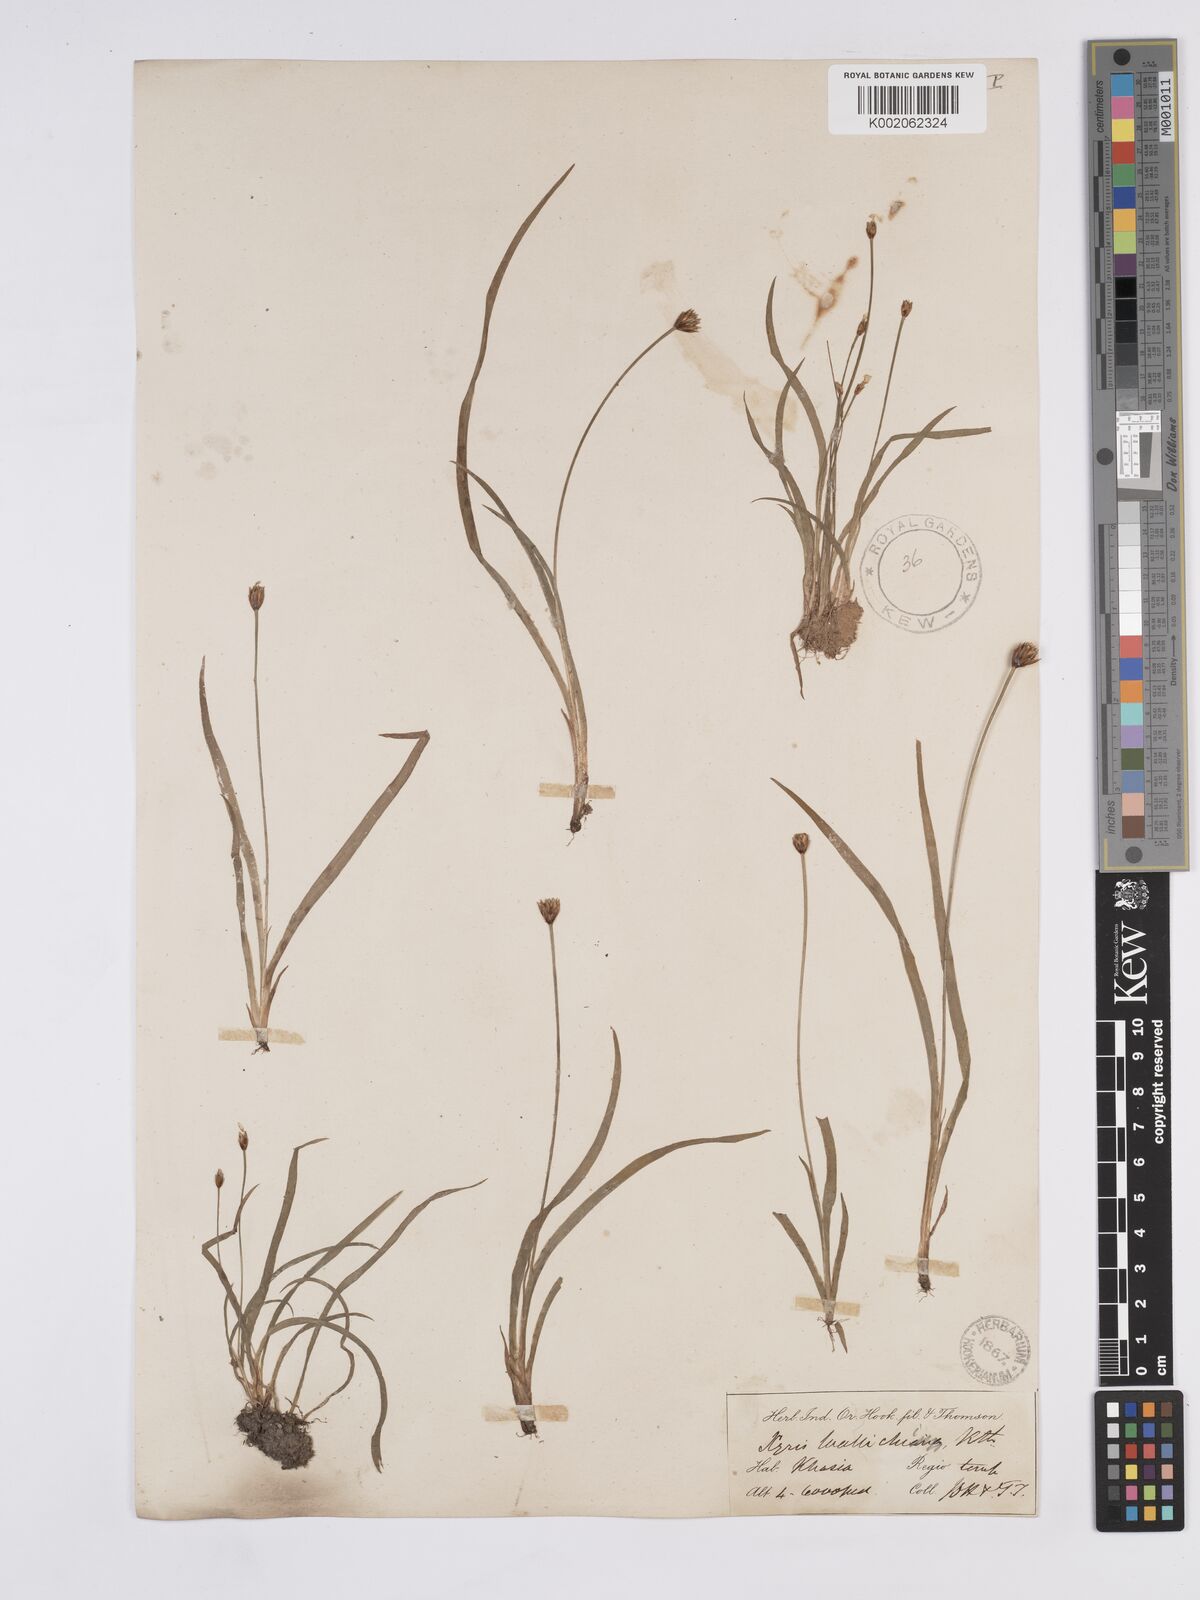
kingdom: Plantae
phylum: Tracheophyta
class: Liliopsida
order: Poales
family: Xyridaceae
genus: Xyris
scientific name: Xyris wallichii
